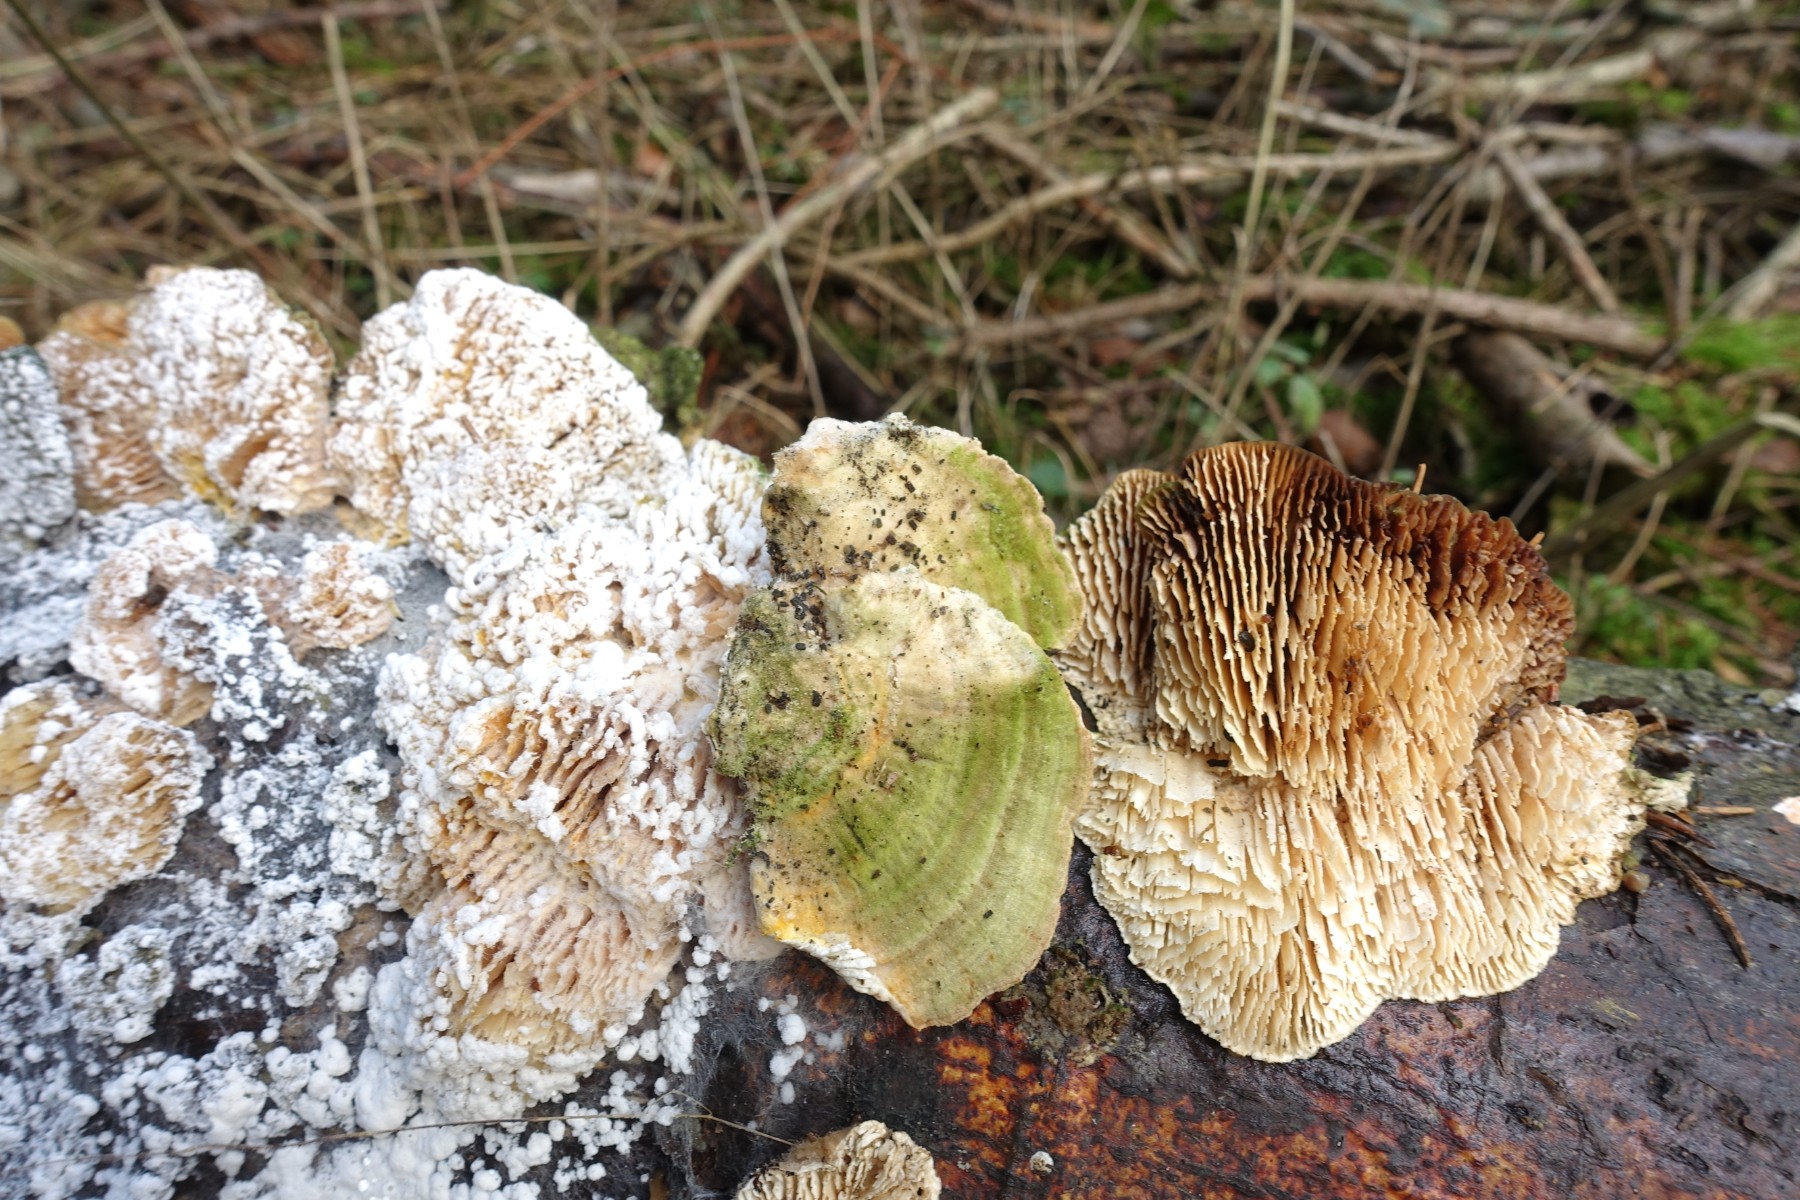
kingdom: Fungi
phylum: Basidiomycota
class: Agaricomycetes
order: Polyporales
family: Polyporaceae
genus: Lenzites
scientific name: Lenzites betulinus
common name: birke-læderporesvamp
